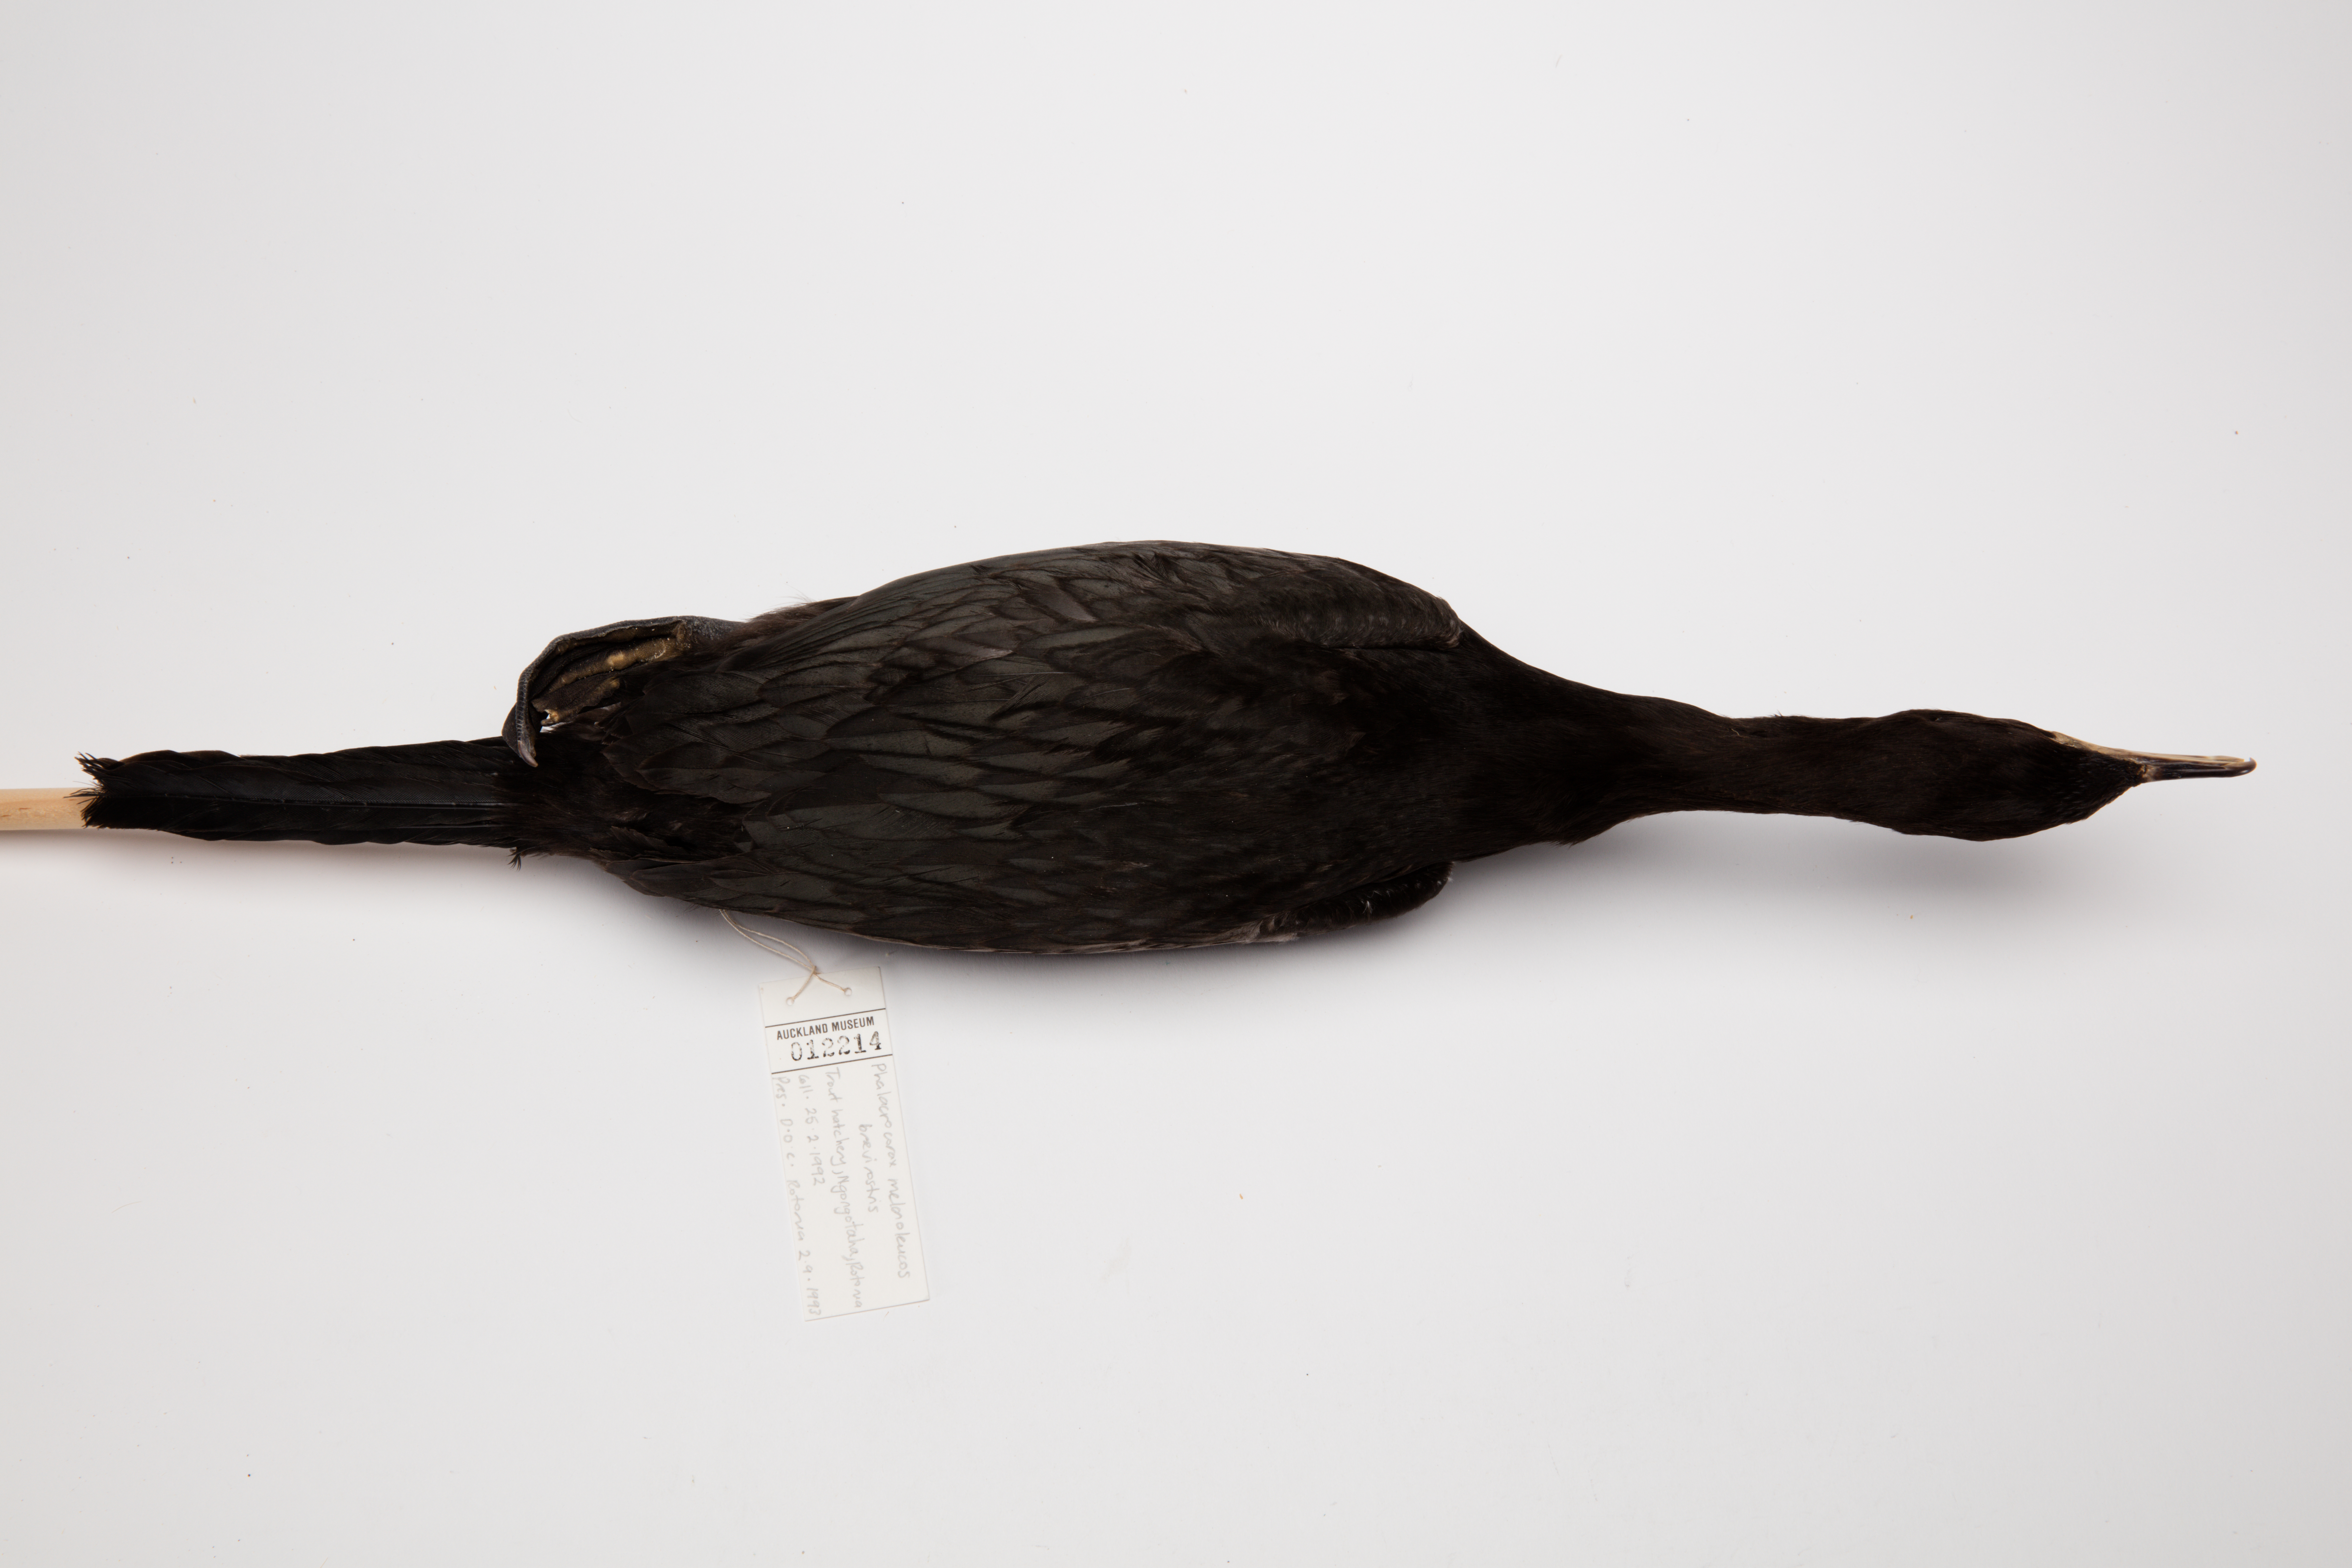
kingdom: Animalia
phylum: Chordata
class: Aves
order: Suliformes
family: Phalacrocoracidae
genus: Microcarbo
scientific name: Microcarbo melanoleucos
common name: Little pied cormorant
